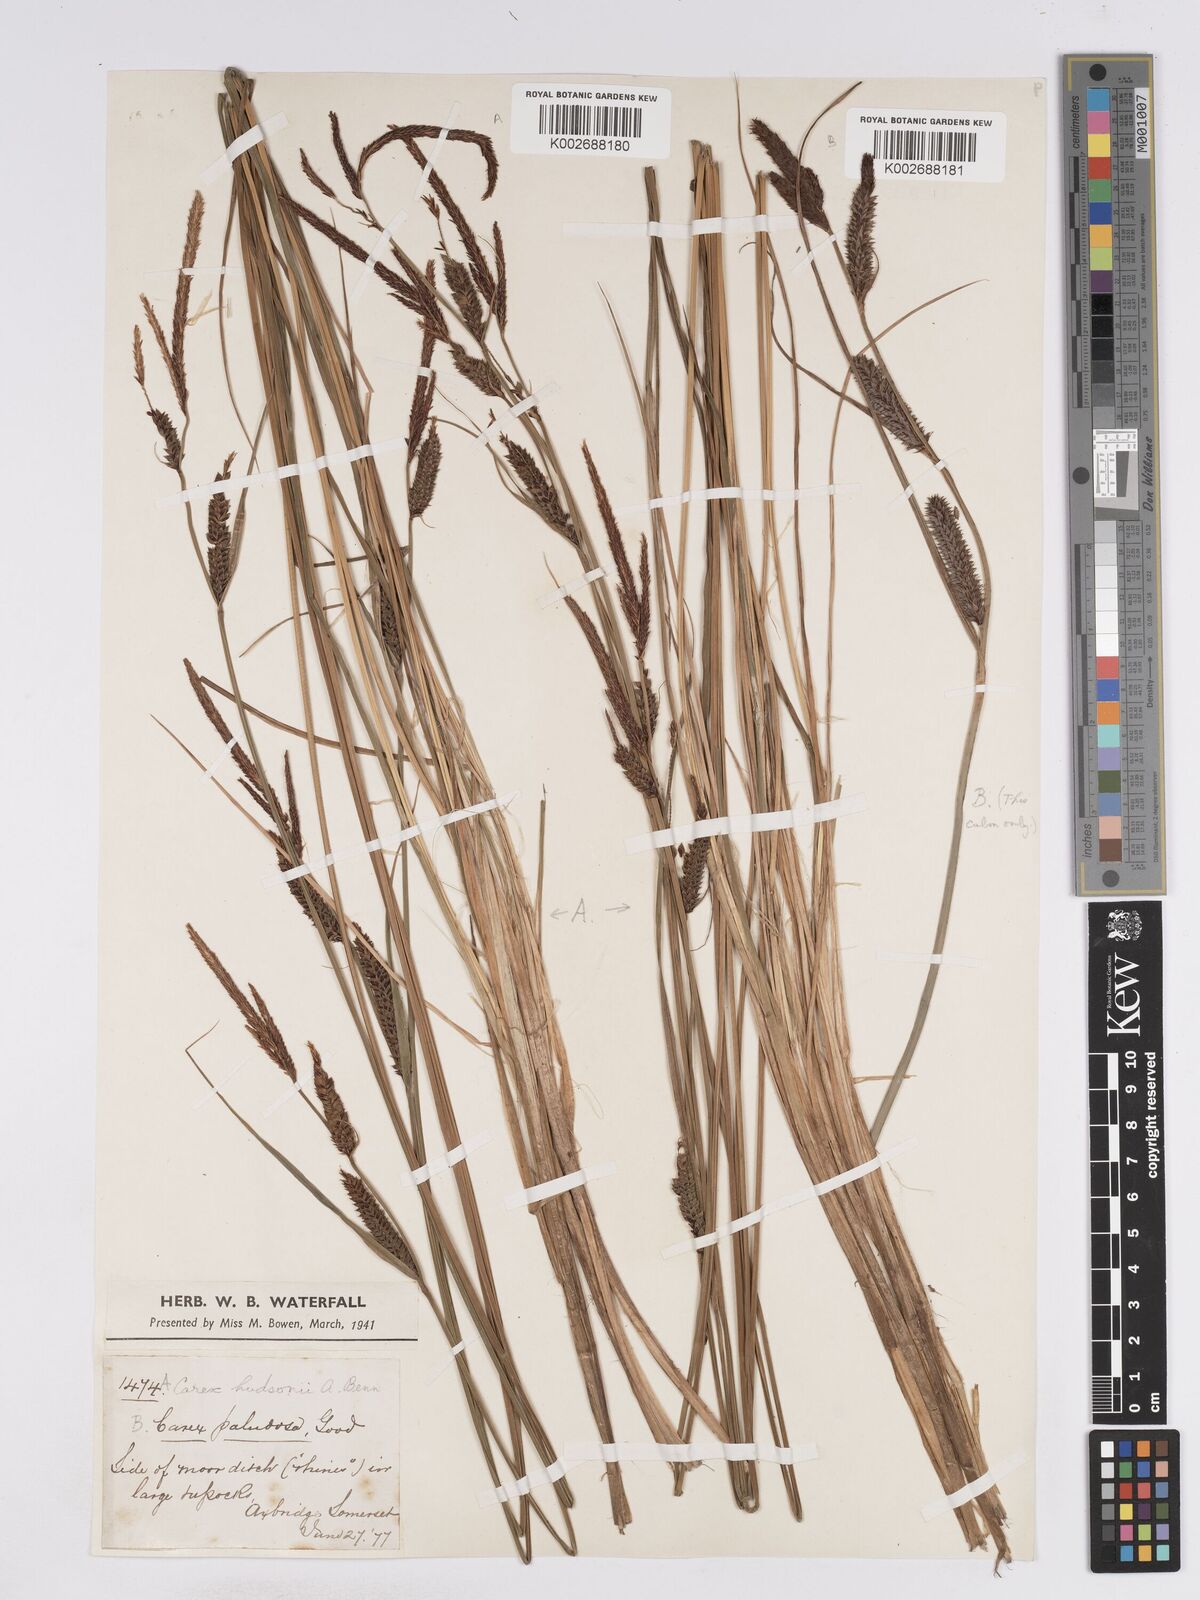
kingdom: Plantae
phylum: Tracheophyta
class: Liliopsida
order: Poales
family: Cyperaceae
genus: Carex
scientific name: Carex elata
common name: Tufted sedge
